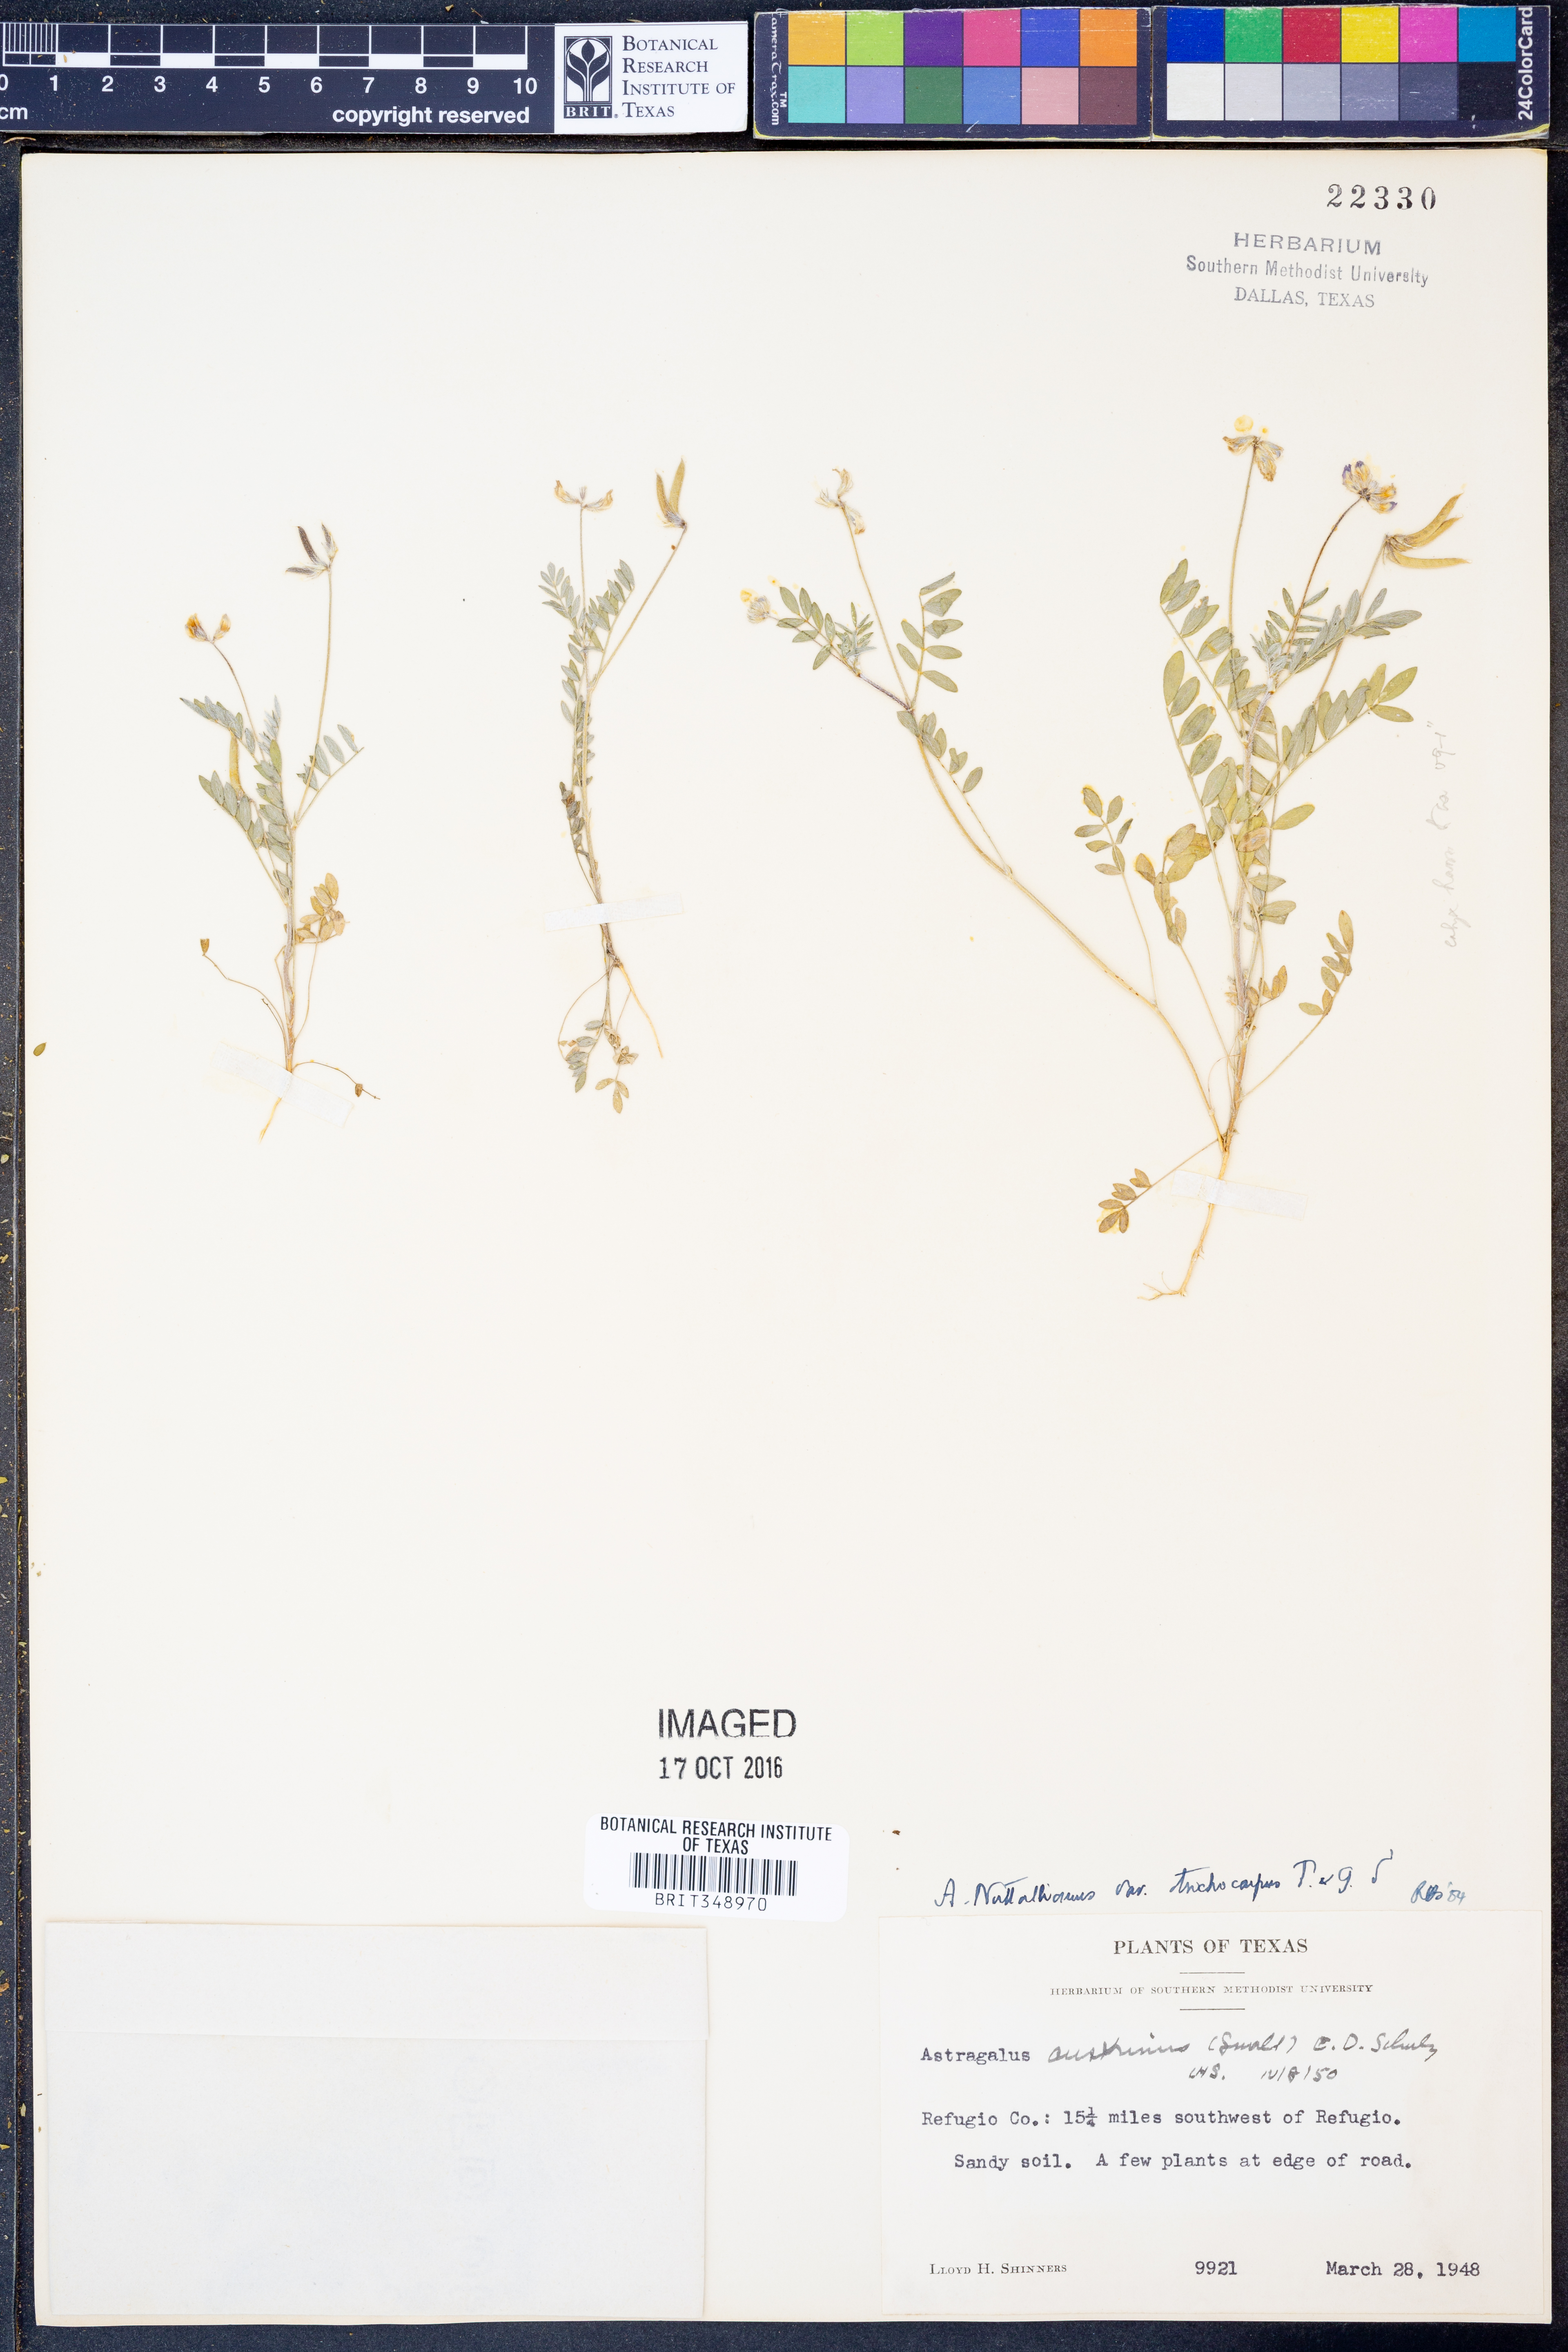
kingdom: Plantae
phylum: Tracheophyta
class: Magnoliopsida
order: Fabales
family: Fabaceae
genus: Astragalus
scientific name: Astragalus nuttallianus
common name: Smallflowered milkvetch
